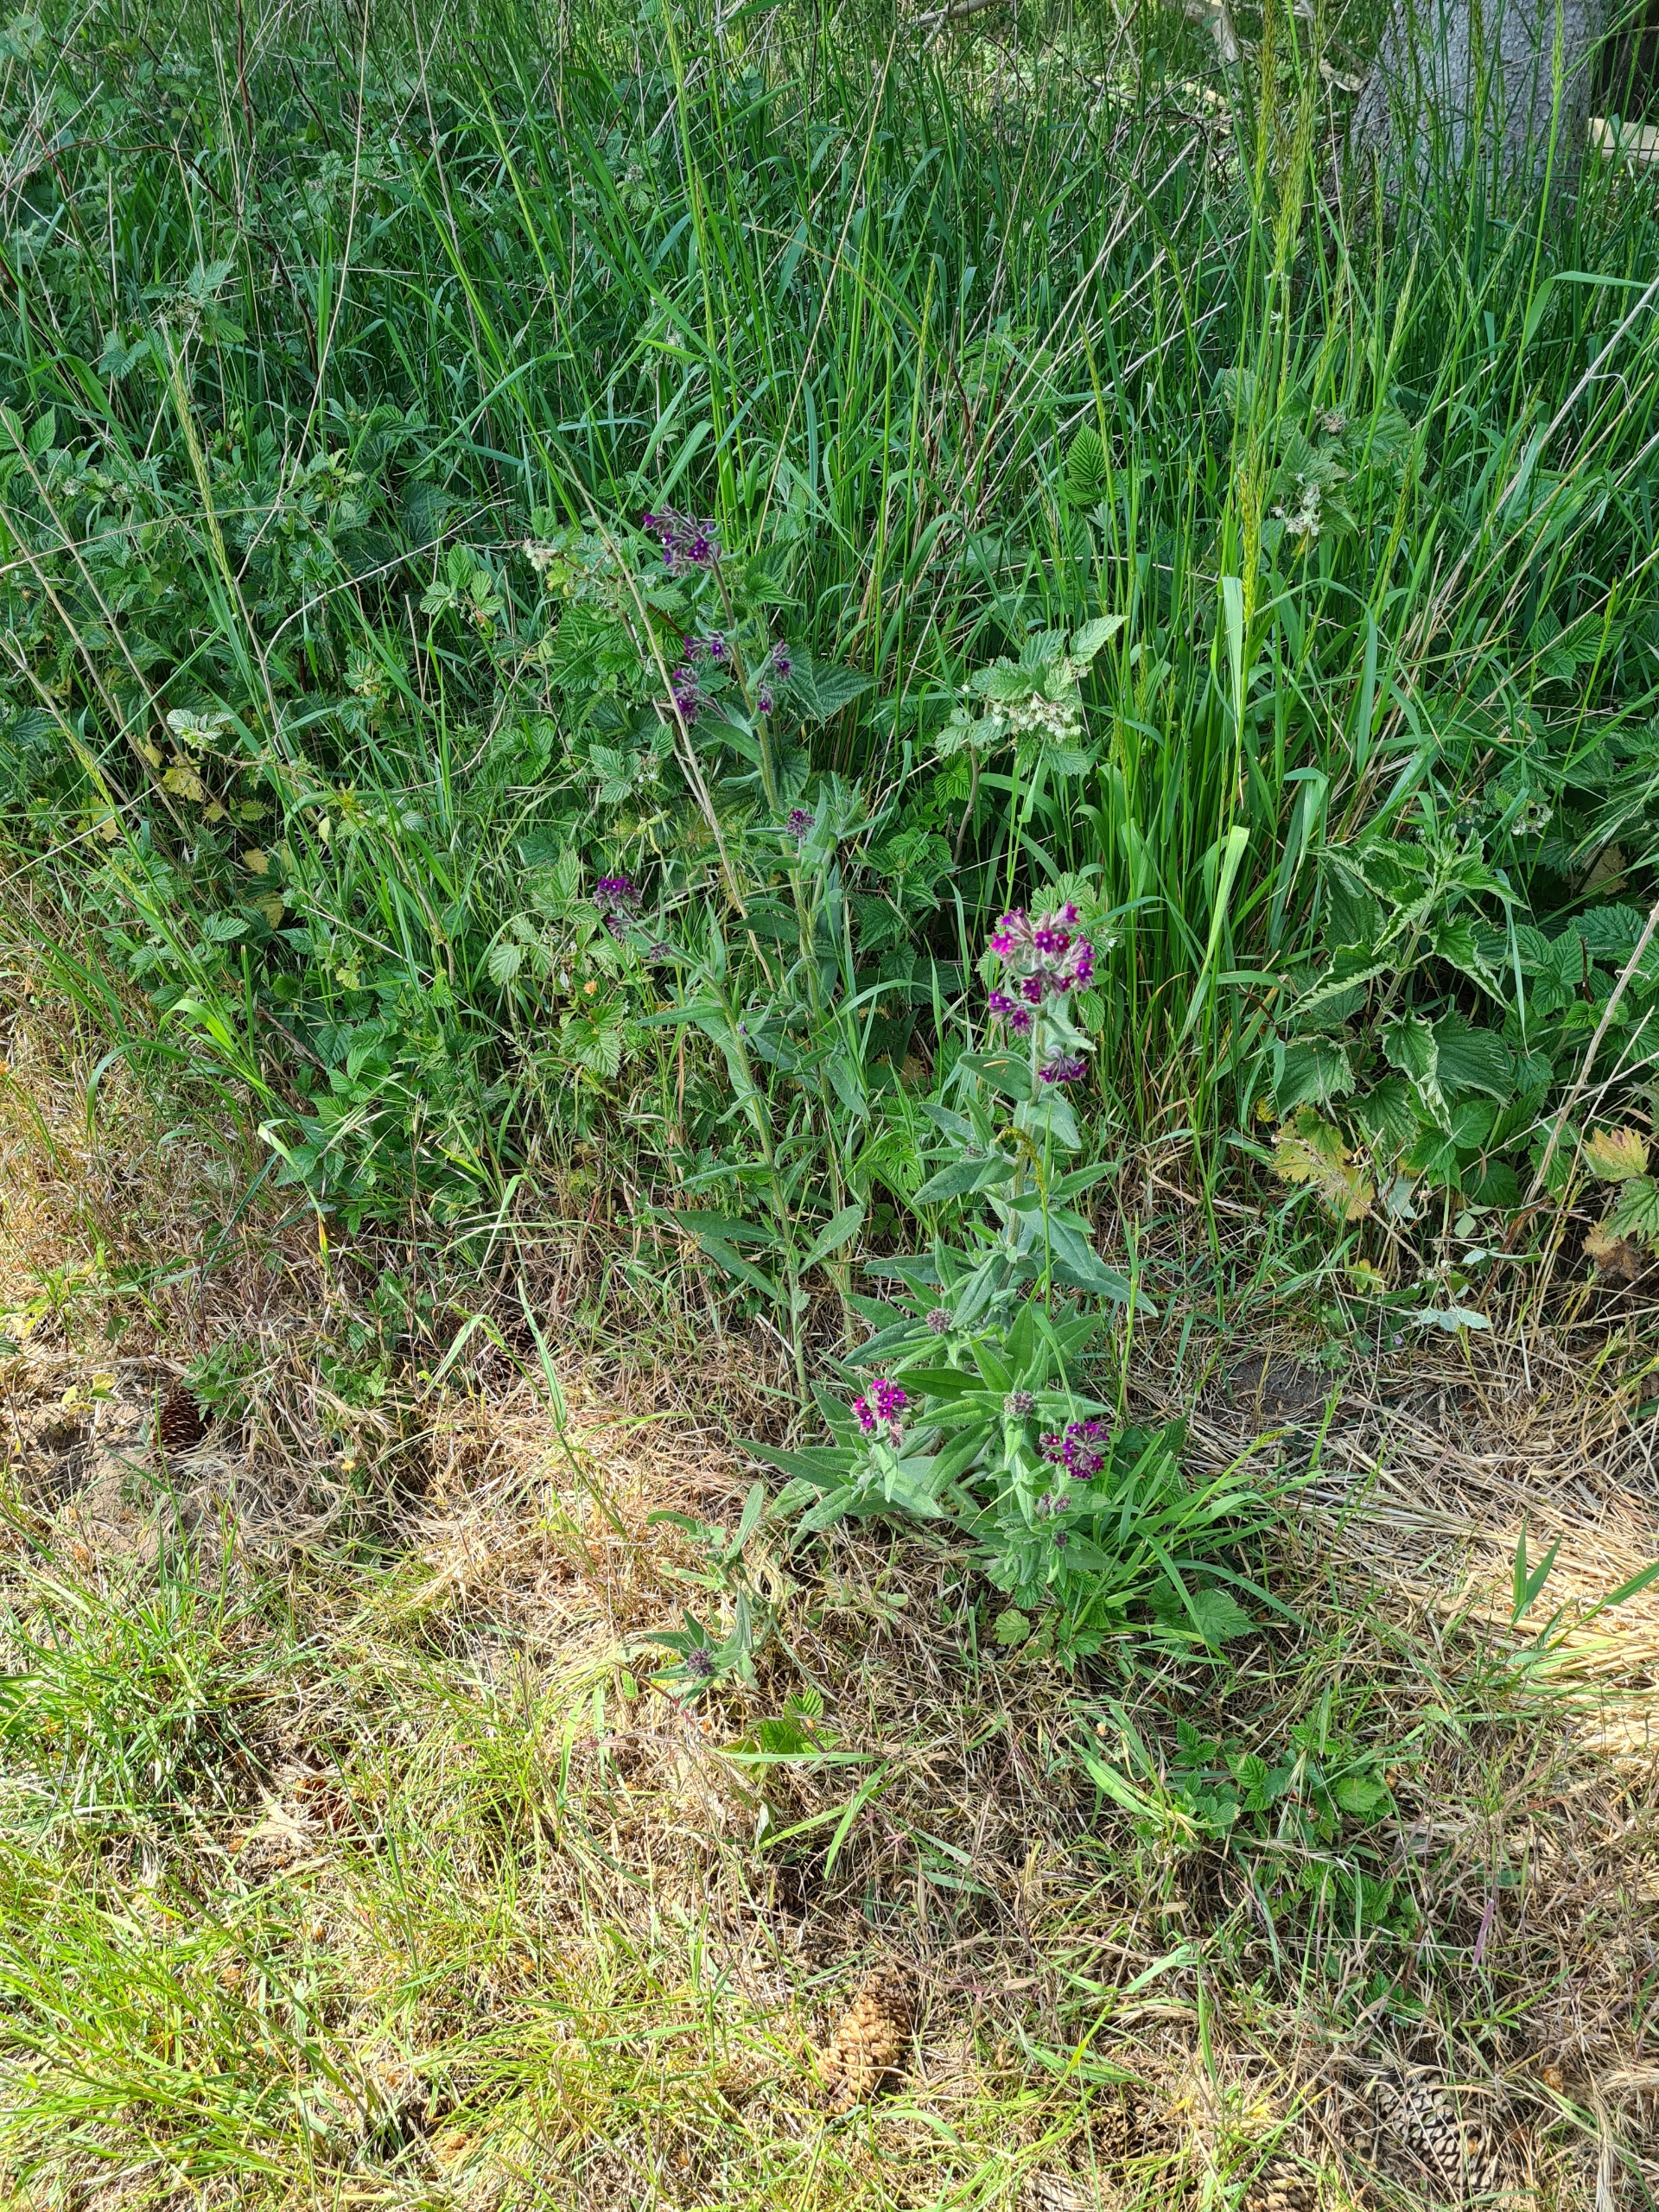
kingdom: Plantae
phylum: Tracheophyta
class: Magnoliopsida
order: Boraginales
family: Boraginaceae
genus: Anchusa
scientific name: Anchusa officinalis
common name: Læge-oksetunge
